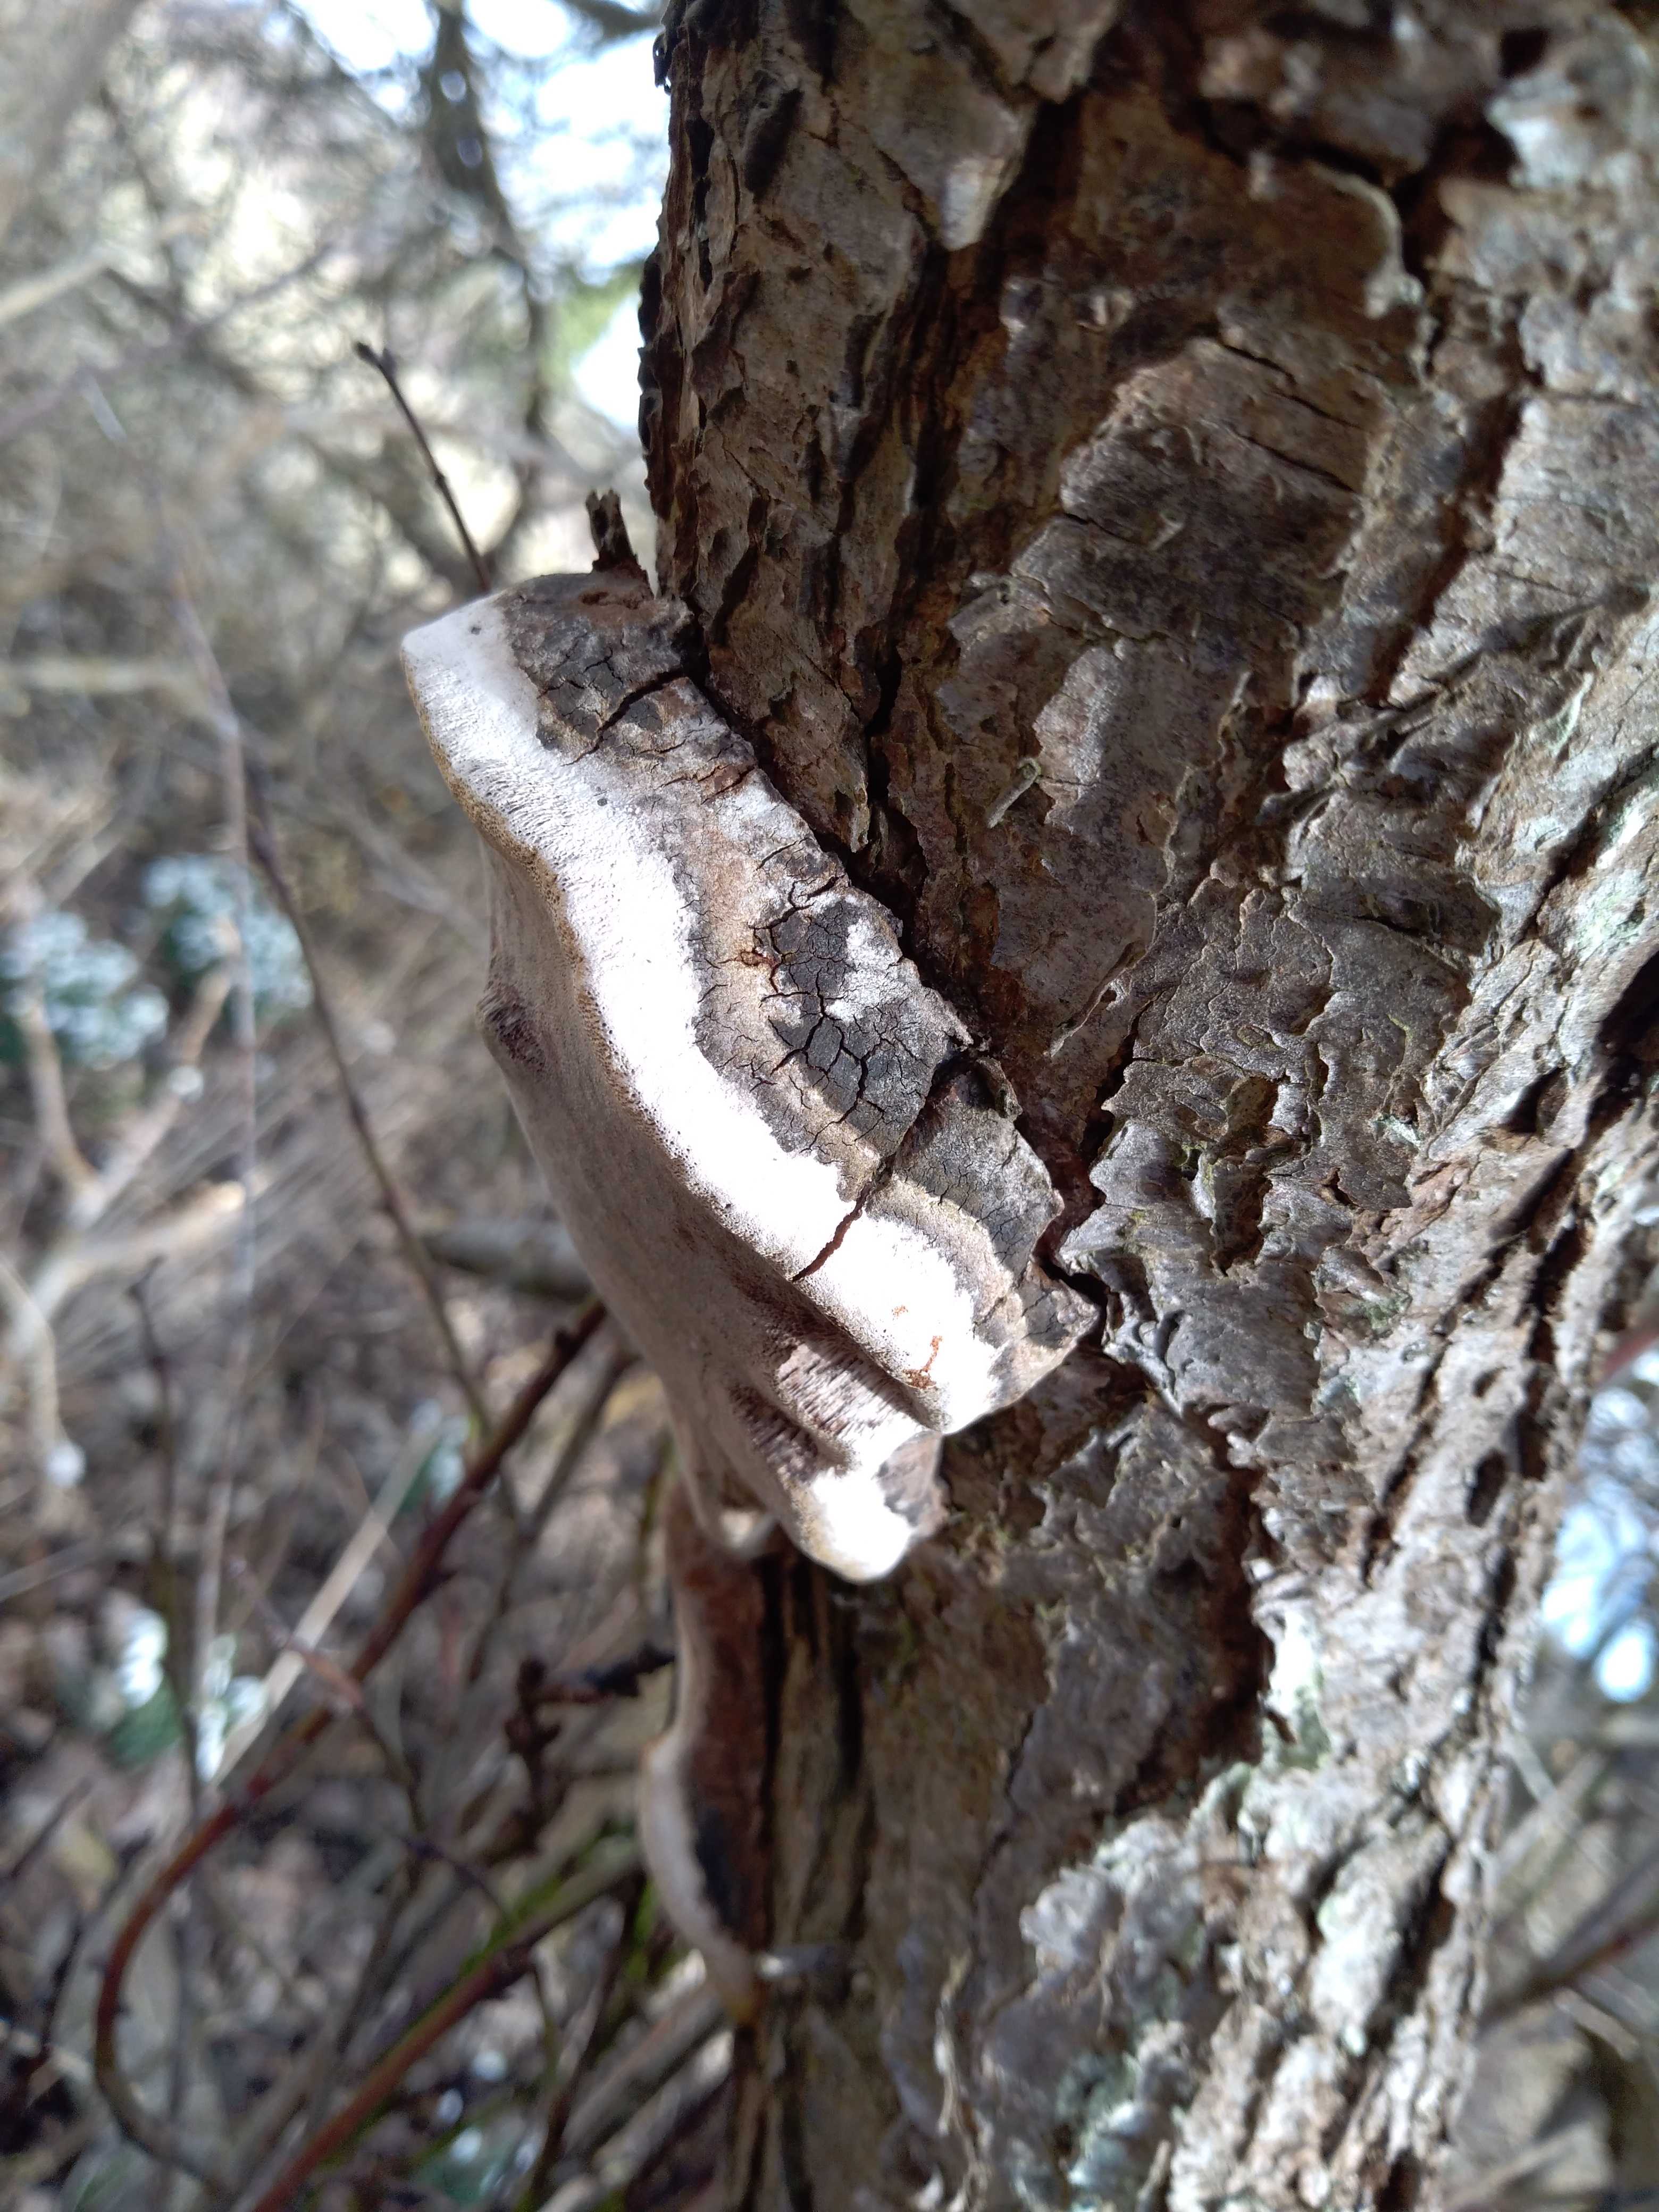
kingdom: Fungi
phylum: Basidiomycota
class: Agaricomycetes
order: Hymenochaetales
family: Hymenochaetaceae
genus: Phellinus
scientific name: Phellinus pomaceus
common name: blomme-ildporesvamp
